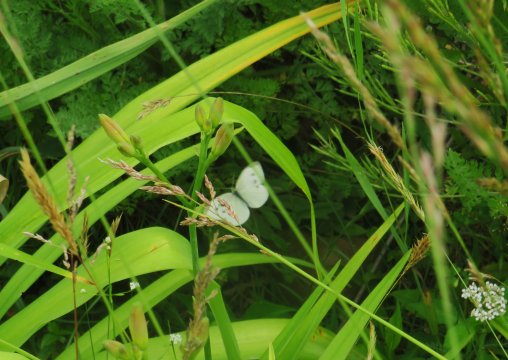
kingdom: Animalia
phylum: Arthropoda
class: Insecta
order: Lepidoptera
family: Pieridae
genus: Pieris
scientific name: Pieris rapae
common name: Cabbage White
